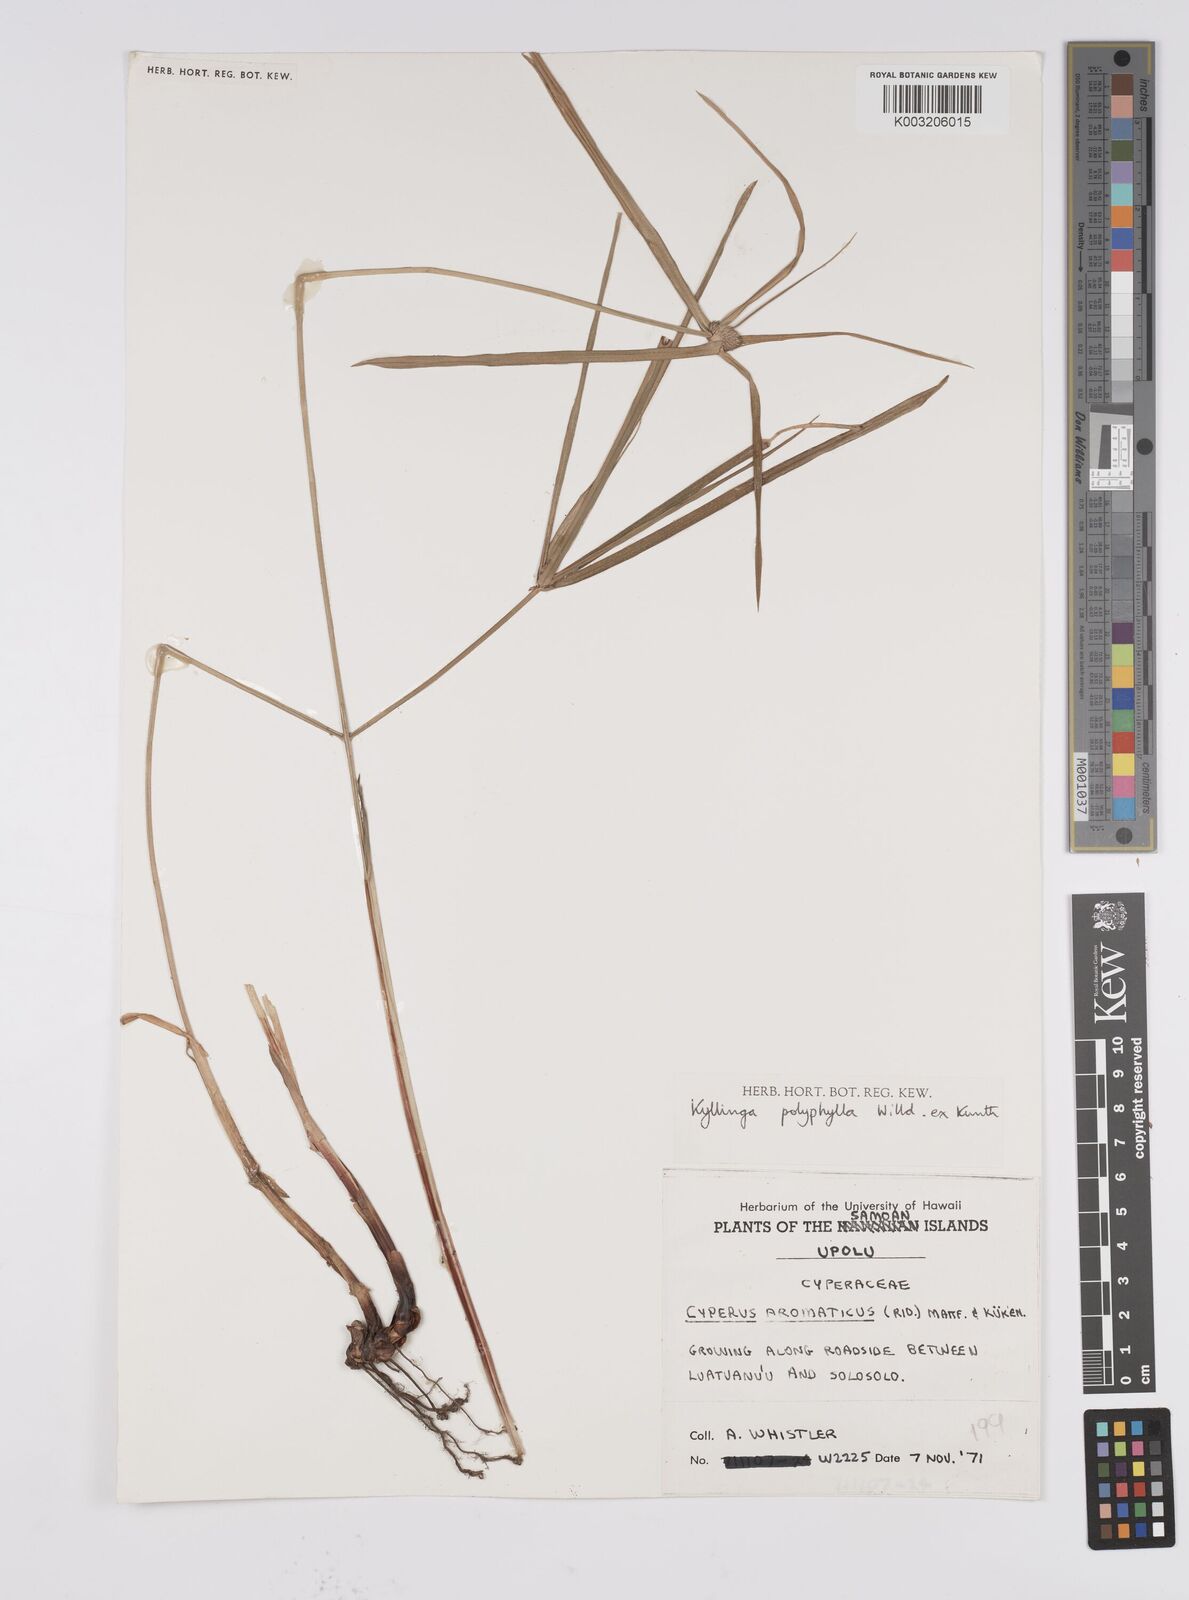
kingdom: Plantae
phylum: Tracheophyta
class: Liliopsida
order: Poales
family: Cyperaceae
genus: Cyperus
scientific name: Cyperus
